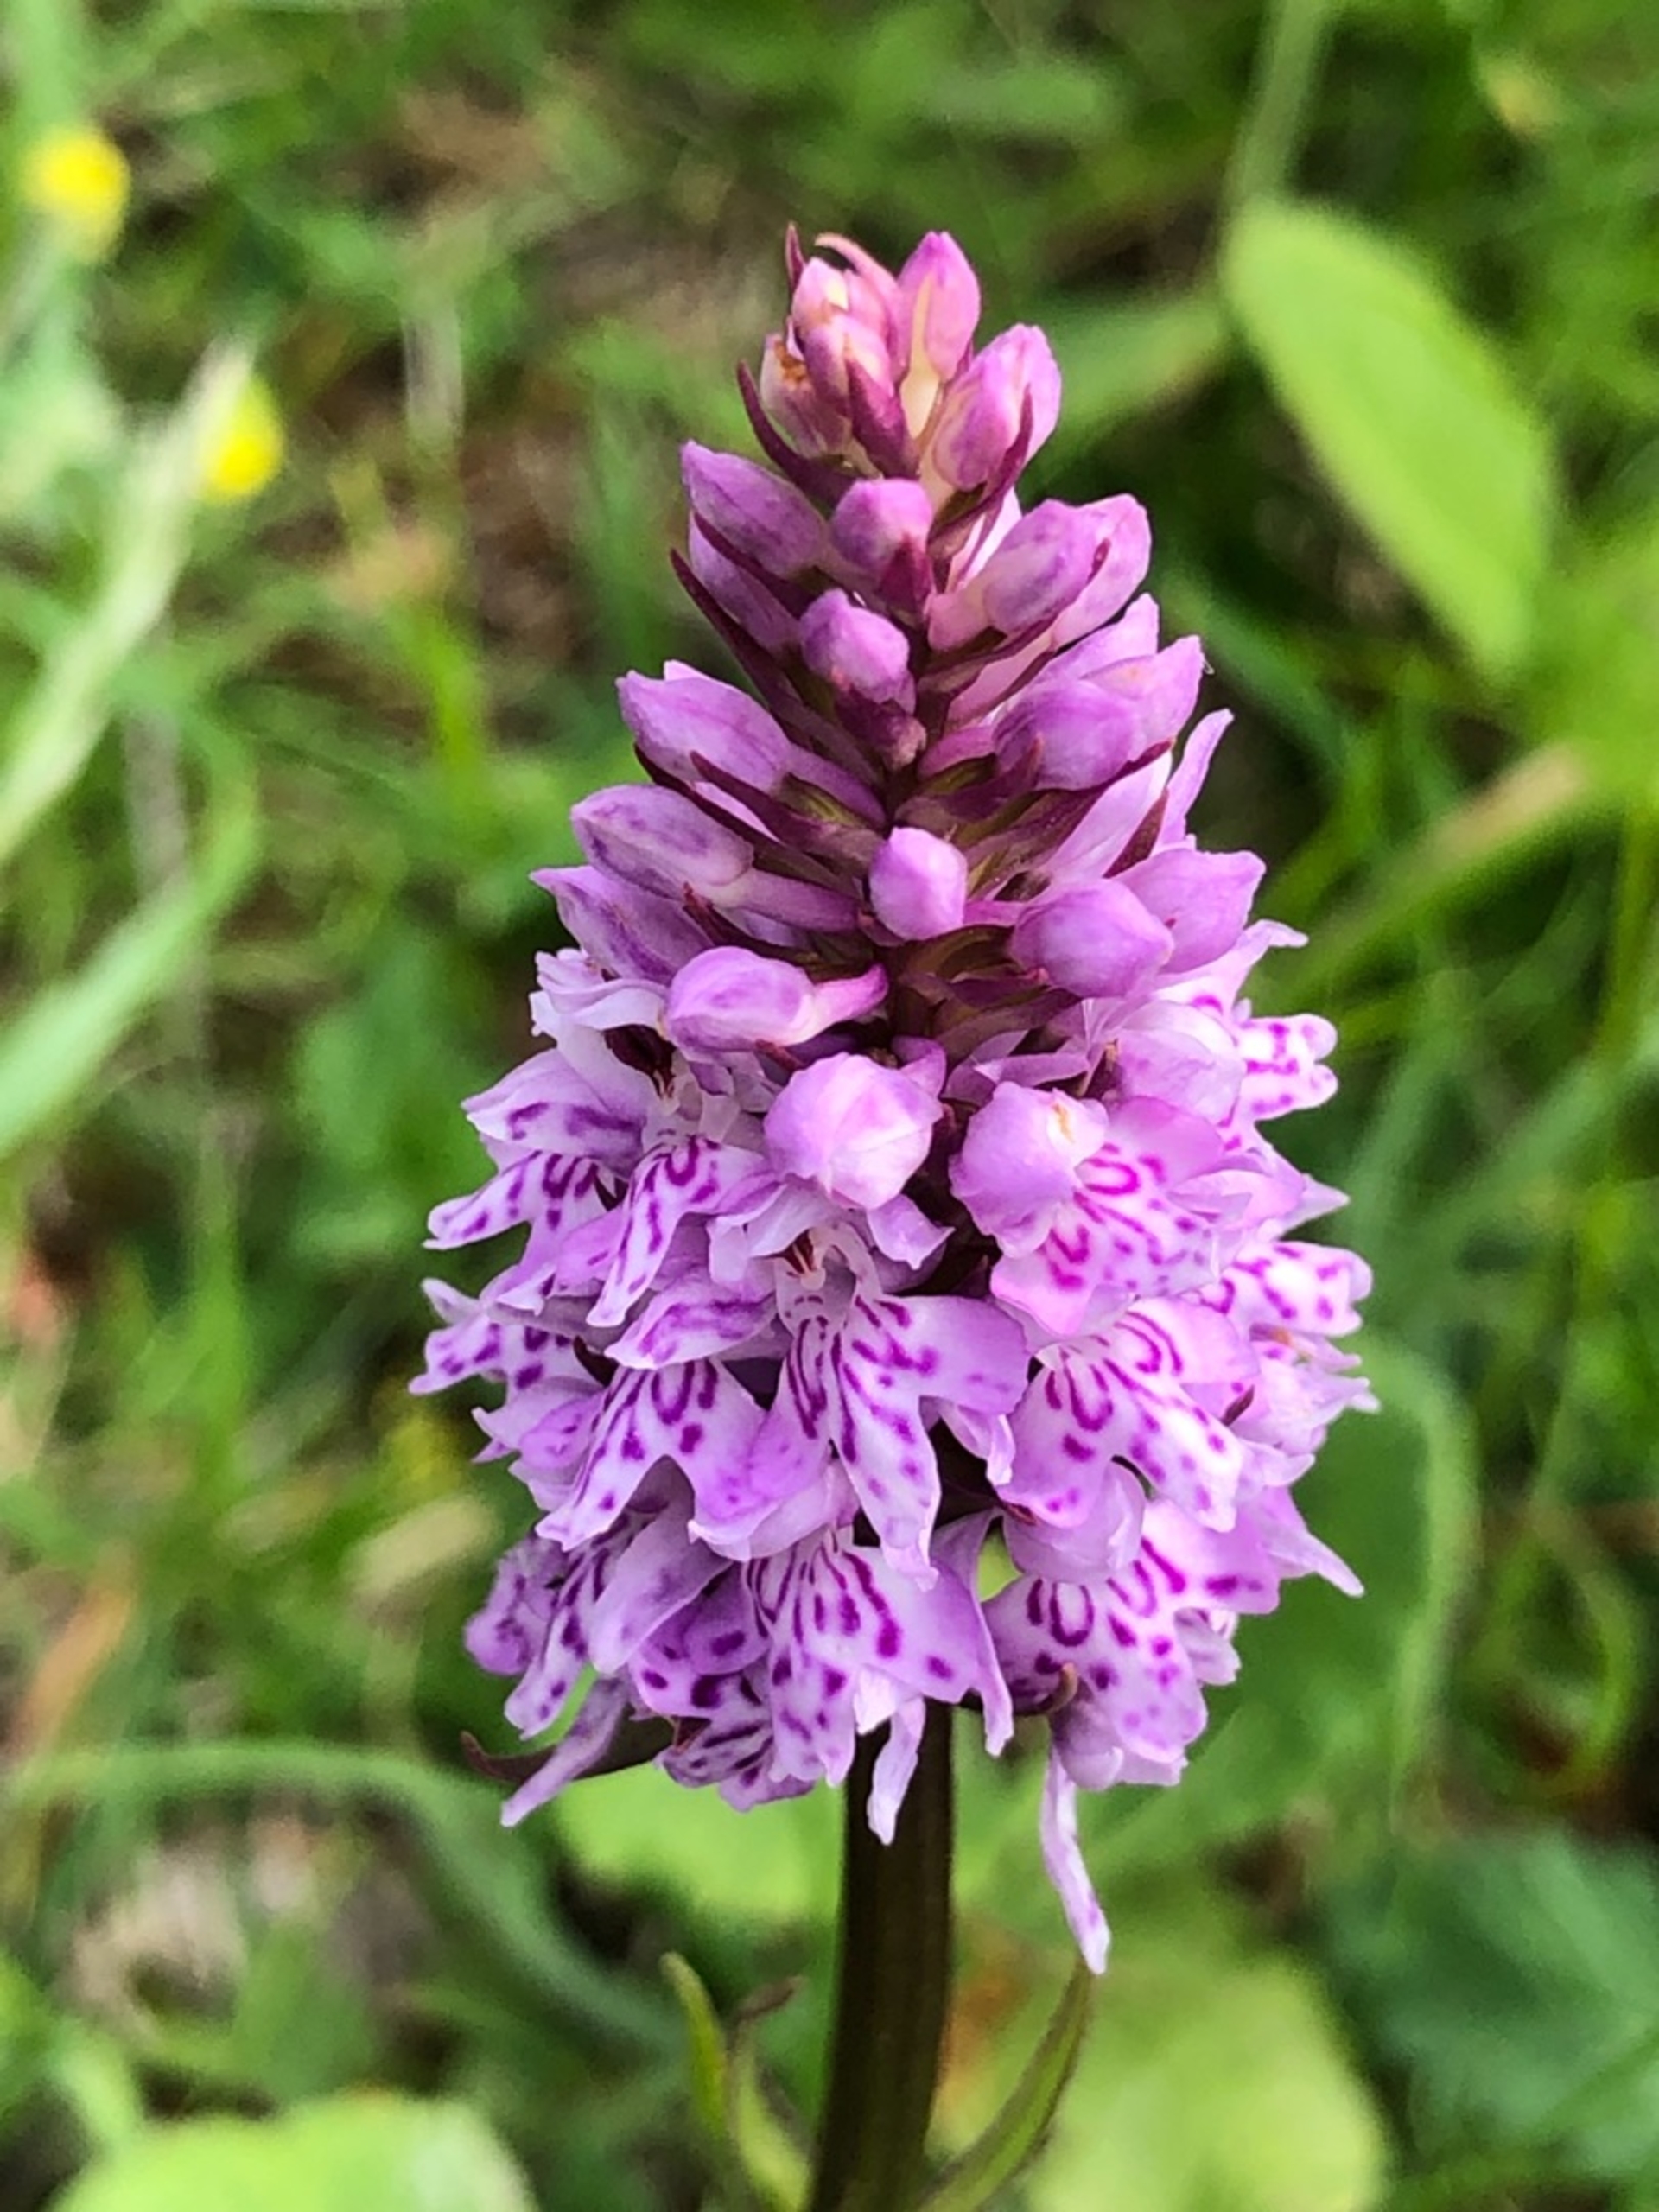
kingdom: Plantae
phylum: Tracheophyta
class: Liliopsida
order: Asparagales
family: Orchidaceae
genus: Dactylorhiza
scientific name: Dactylorhiza maculata
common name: Skov-gøgeurt
